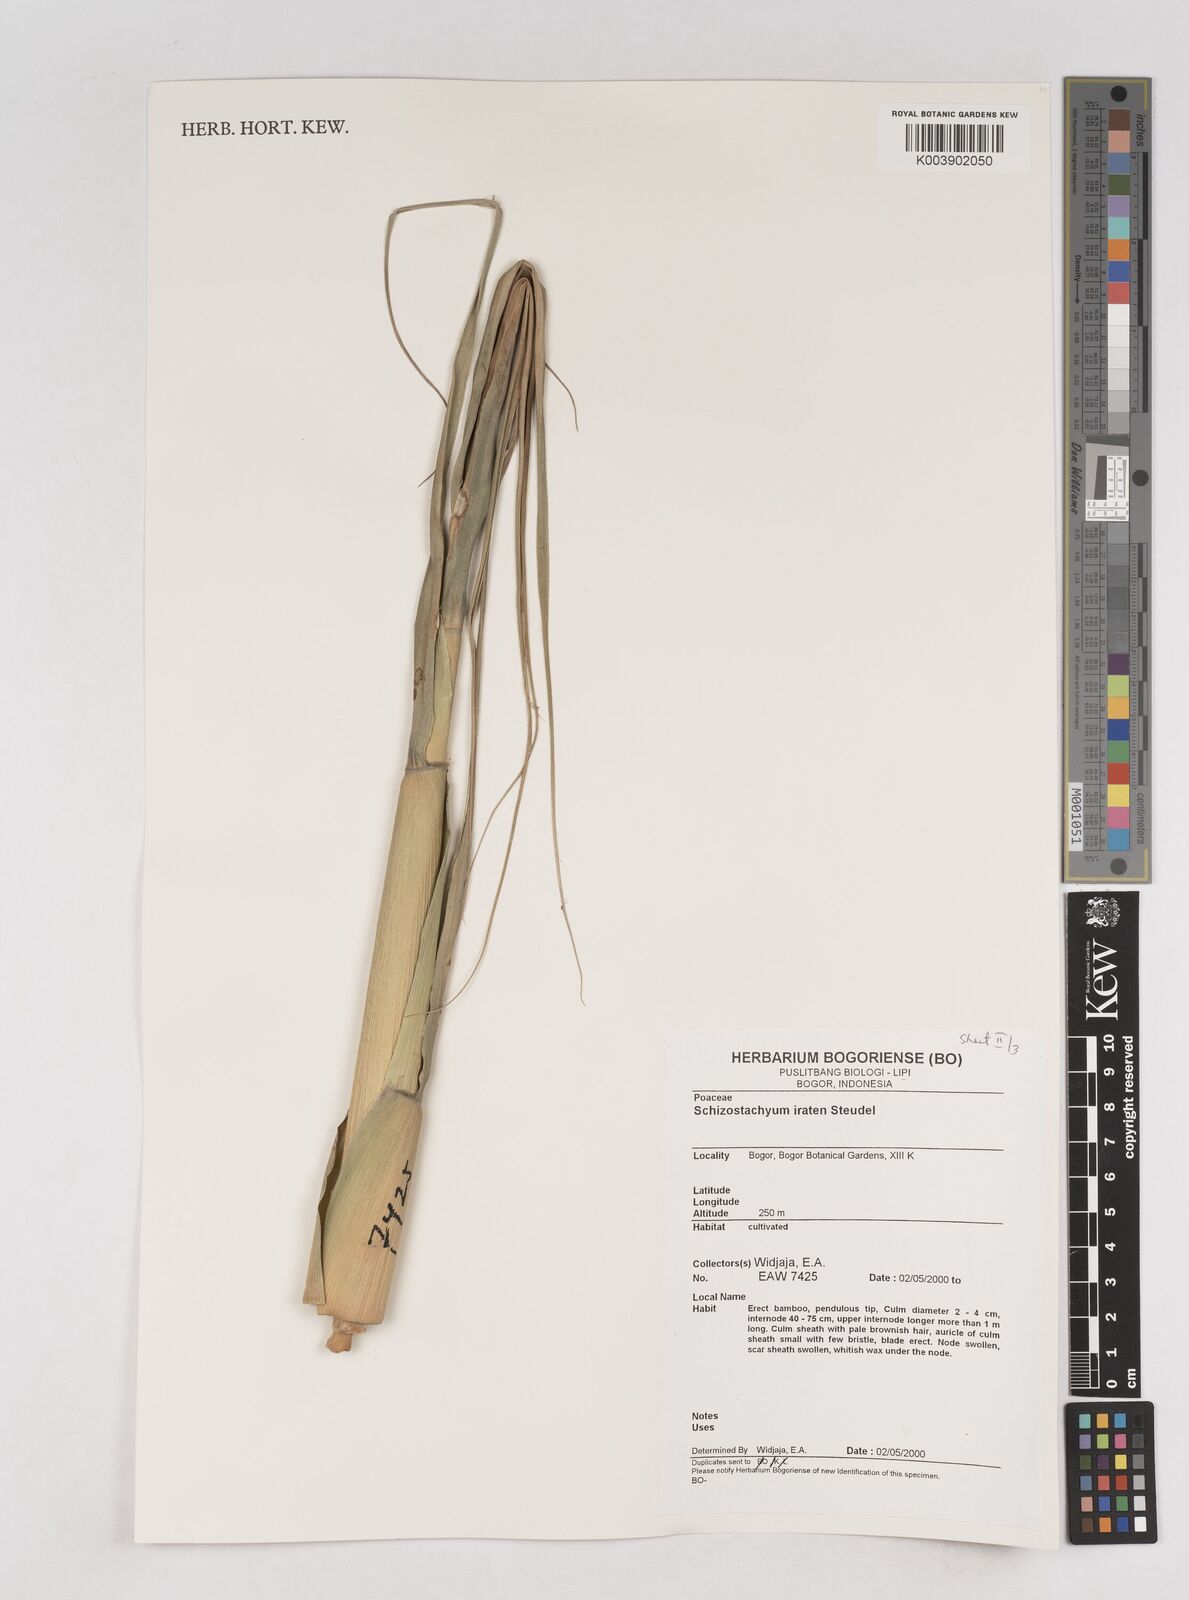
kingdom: Plantae
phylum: Tracheophyta
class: Liliopsida
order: Poales
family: Poaceae
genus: Schizostachyum
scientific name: Schizostachyum iraten
